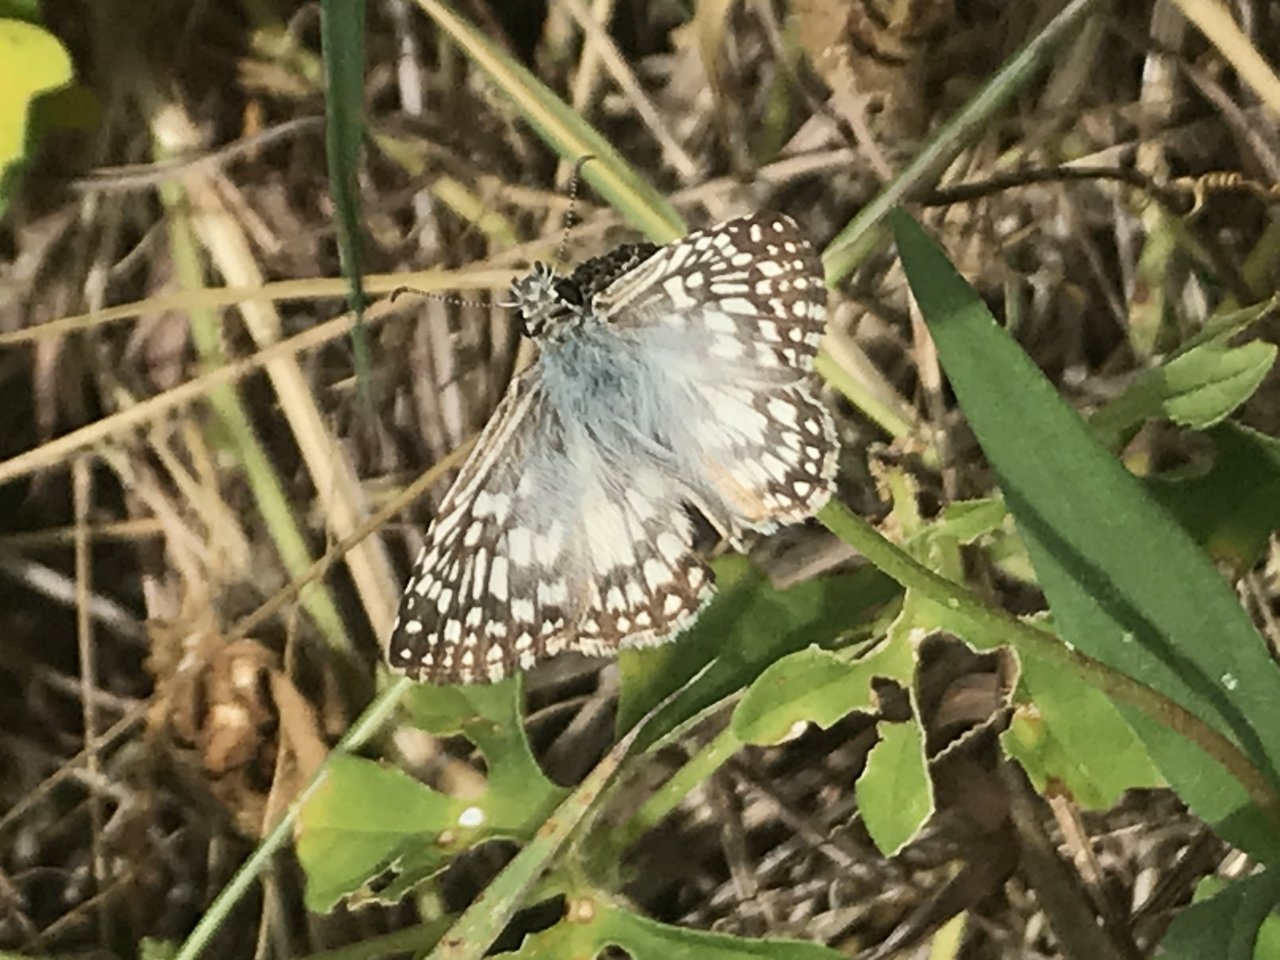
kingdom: Animalia
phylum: Arthropoda
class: Insecta
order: Lepidoptera
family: Hesperiidae
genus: Pyrgus
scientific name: Pyrgus oileus
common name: Tropical Checkered-Skipper
